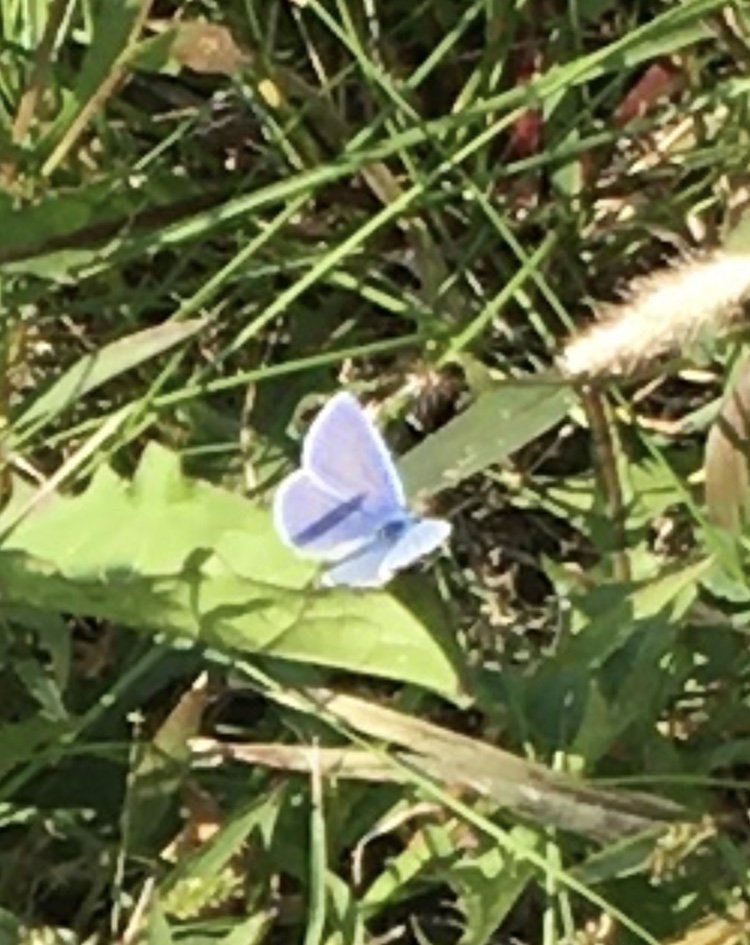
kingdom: Animalia
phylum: Arthropoda
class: Insecta
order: Lepidoptera
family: Lycaenidae
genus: Polyommatus
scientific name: Polyommatus icarus
